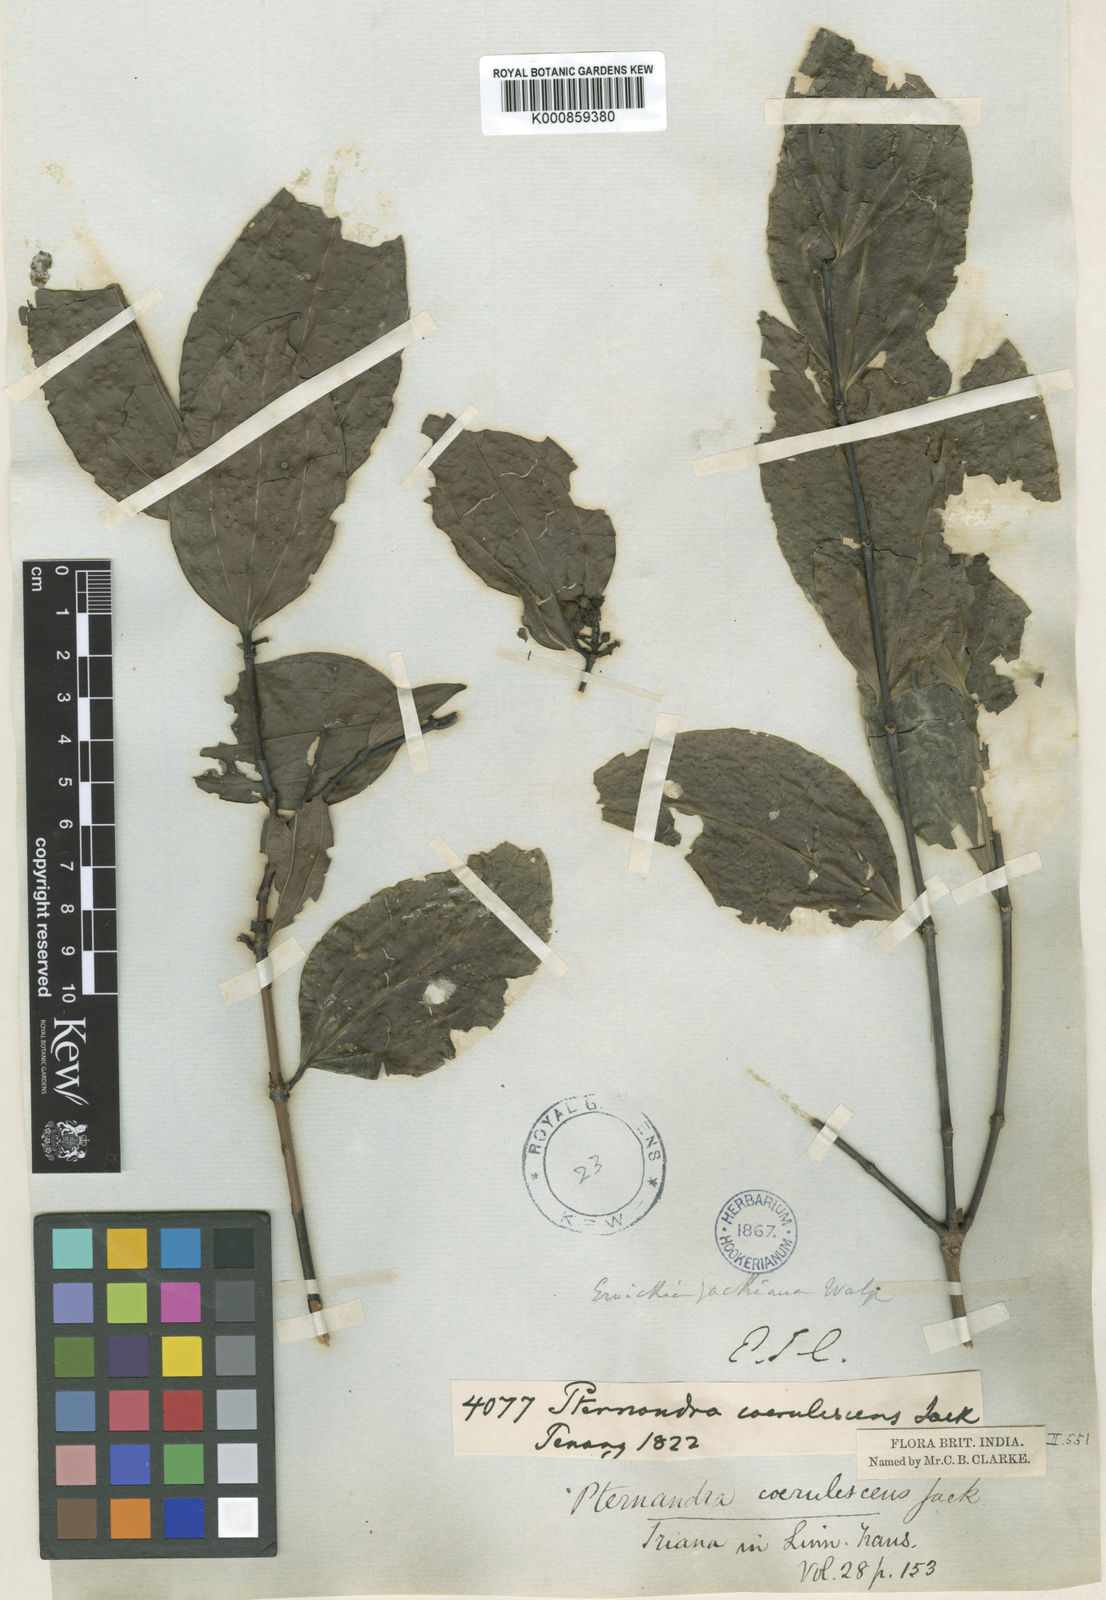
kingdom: Plantae
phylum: Tracheophyta
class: Magnoliopsida
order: Myrtales
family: Melastomataceae
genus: Pternandra
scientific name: Pternandra coerulescens
